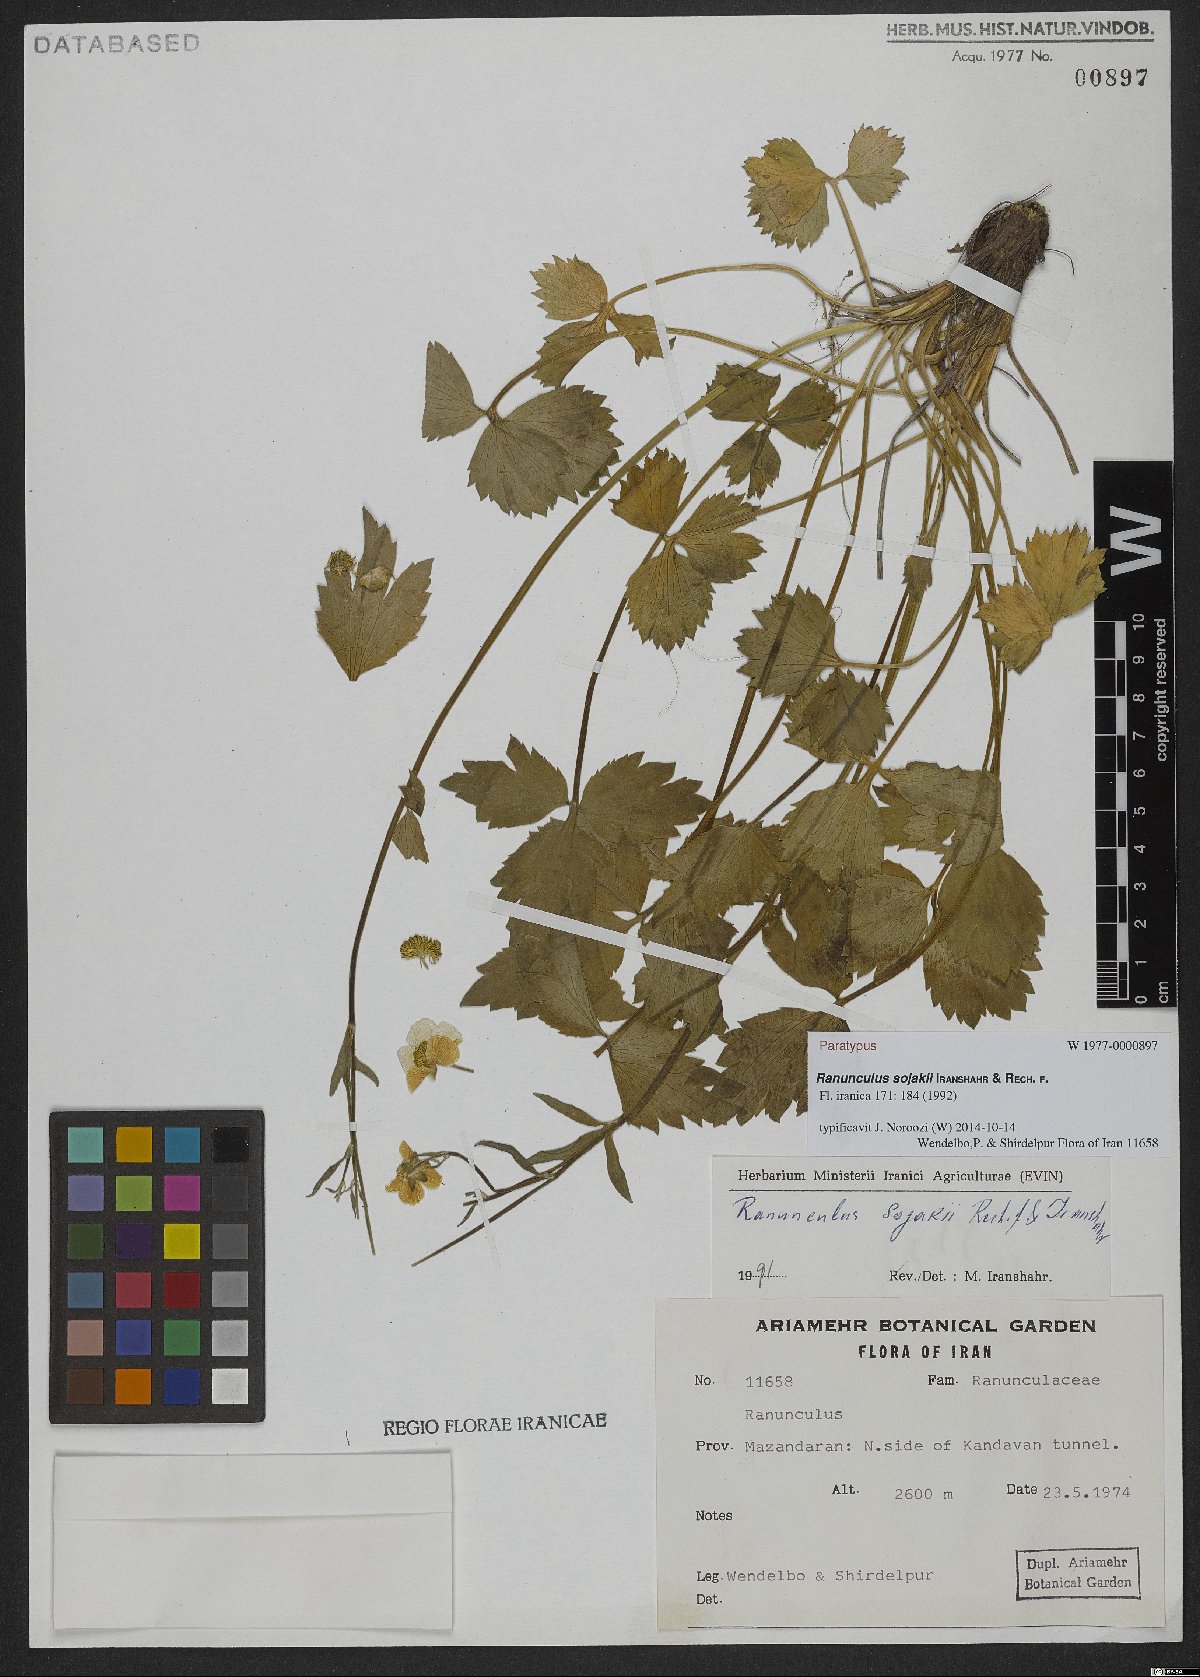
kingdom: Plantae
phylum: Tracheophyta
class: Magnoliopsida
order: Ranunculales
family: Ranunculaceae
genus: Ranunculus
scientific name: Ranunculus sojakii
